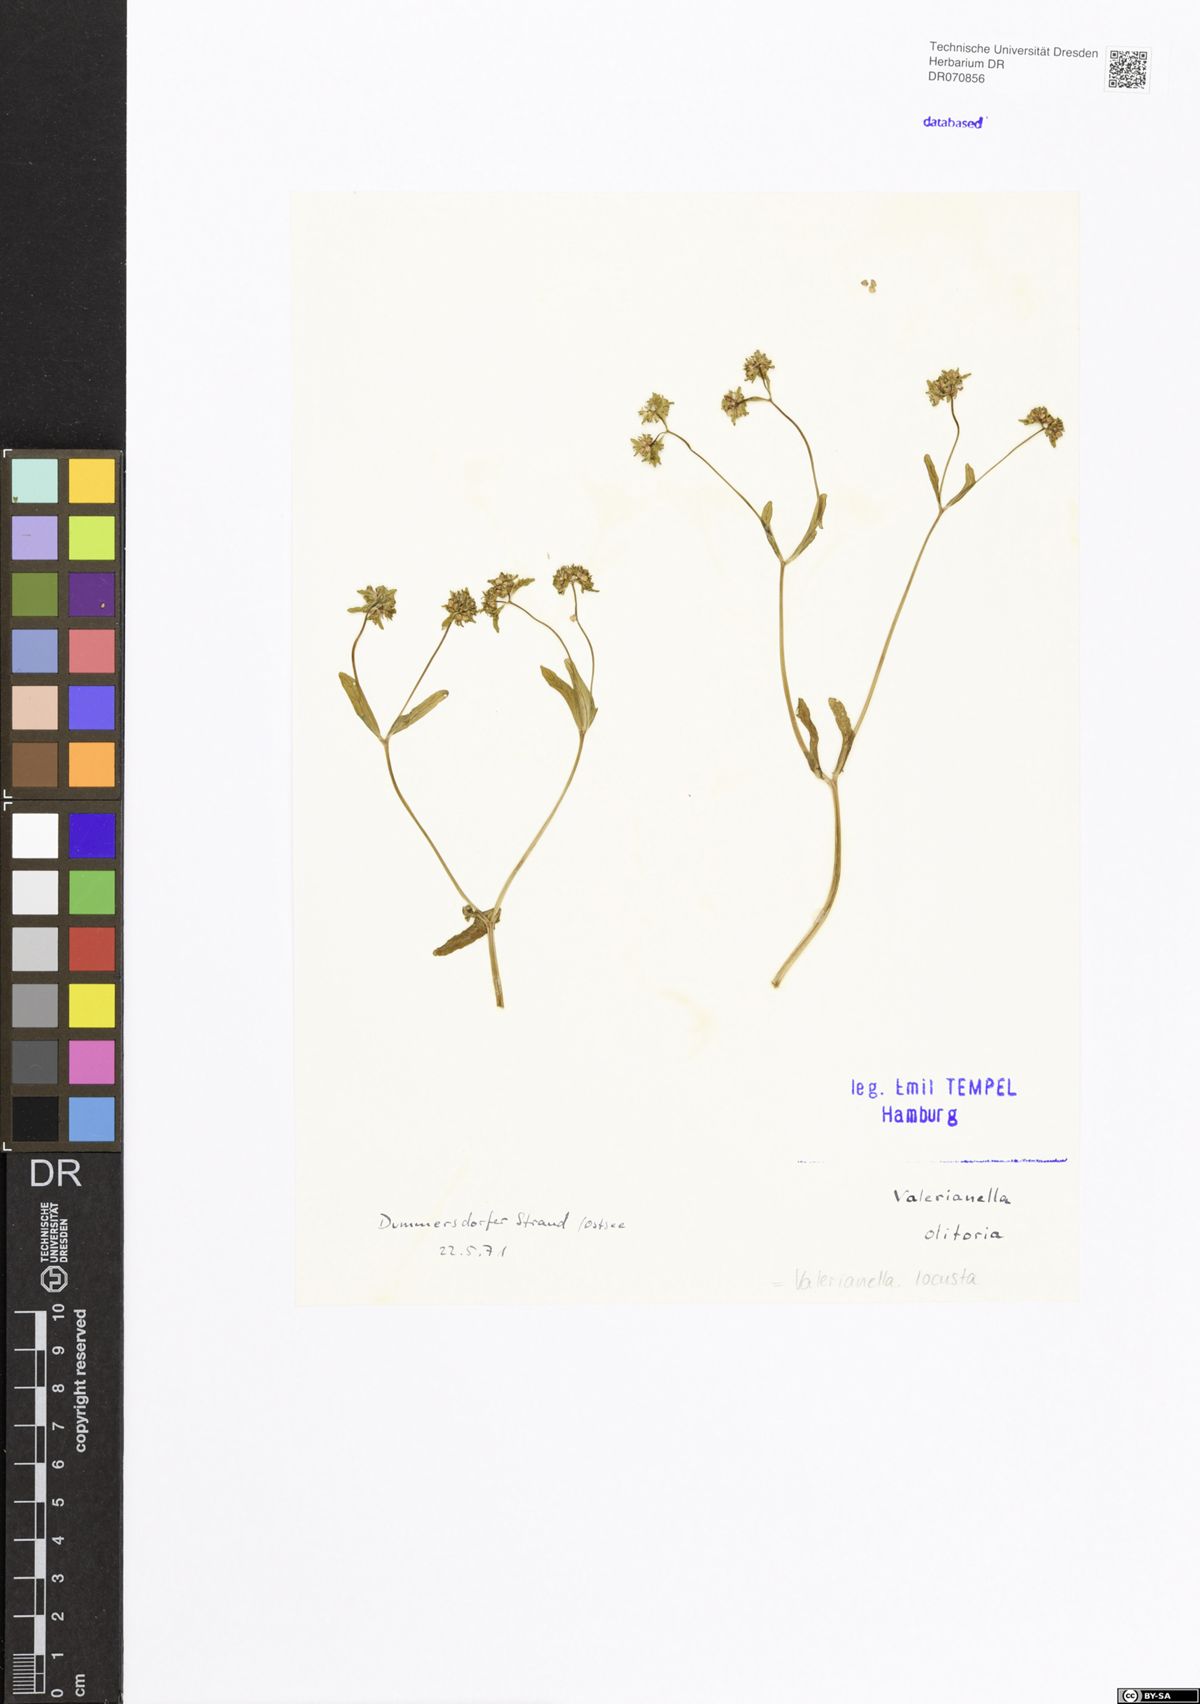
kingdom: Plantae
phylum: Tracheophyta
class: Magnoliopsida
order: Dipsacales
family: Caprifoliaceae
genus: Valerianella
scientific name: Valerianella locusta
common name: Common cornsalad
